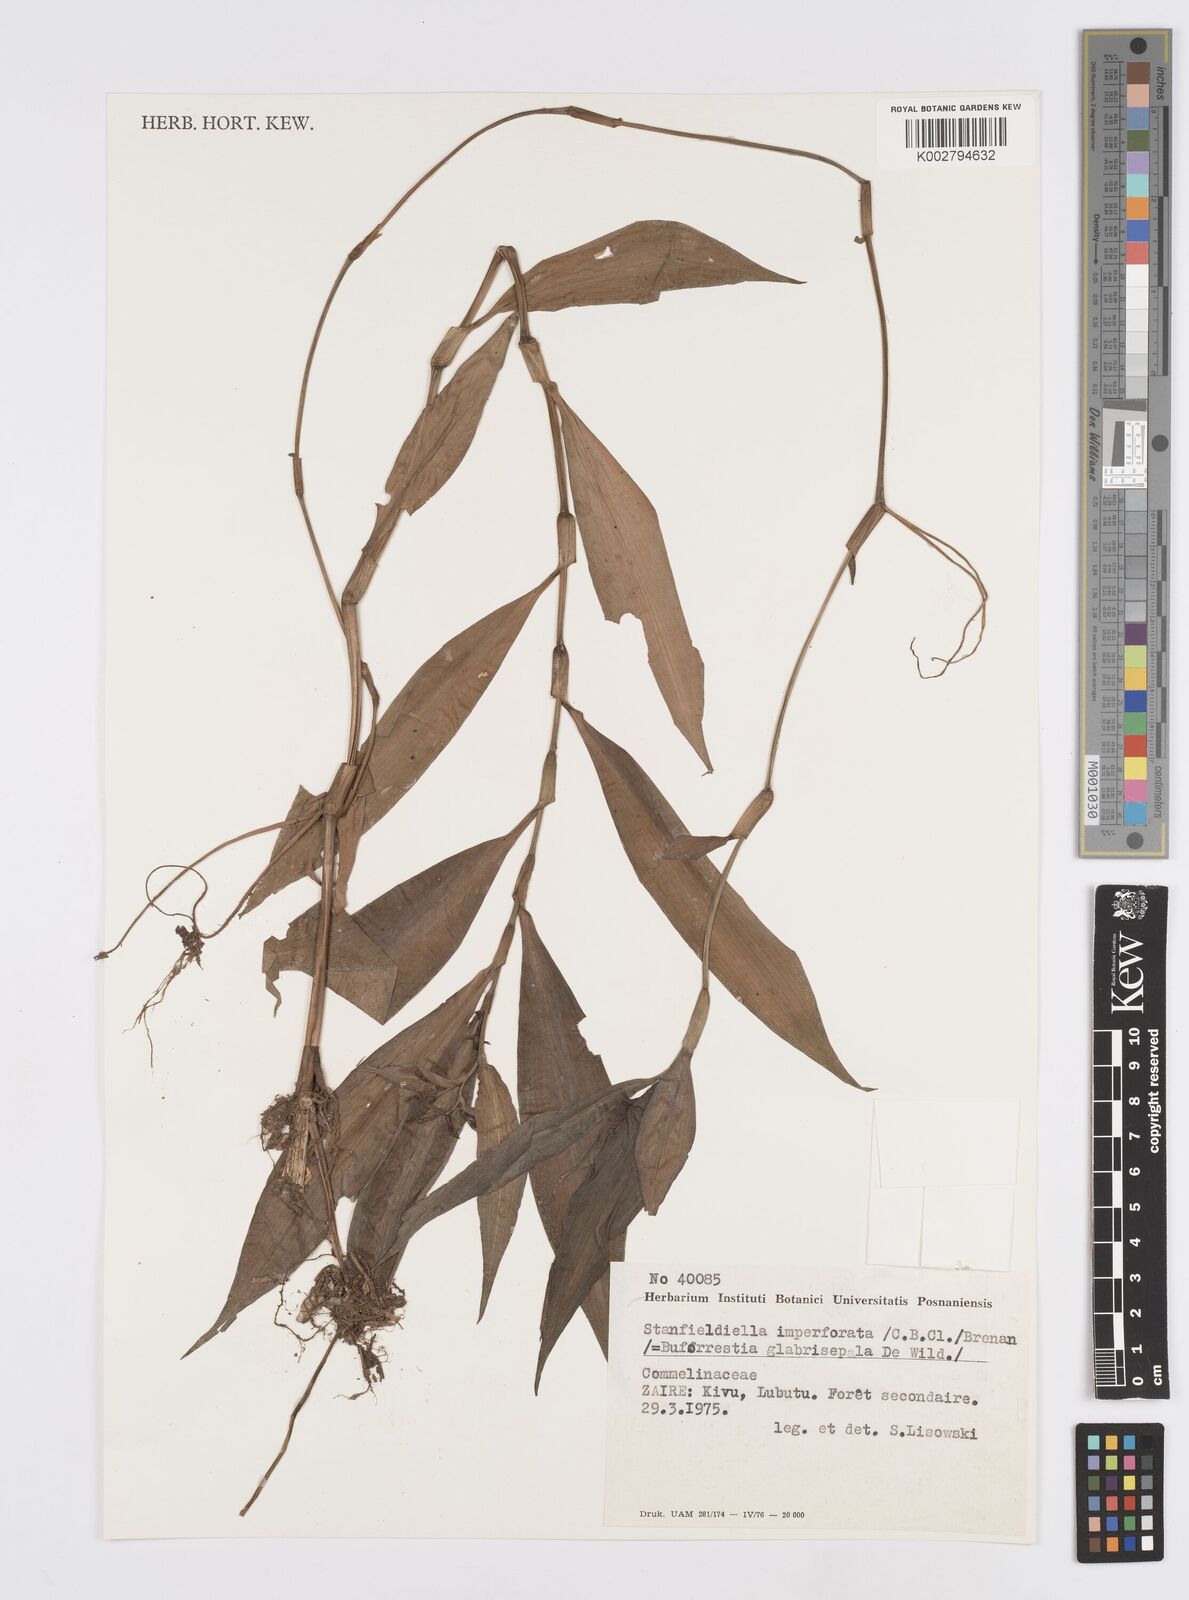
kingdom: Plantae
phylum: Tracheophyta
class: Liliopsida
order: Commelinales
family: Commelinaceae
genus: Stanfieldiella
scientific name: Stanfieldiella imperforata
